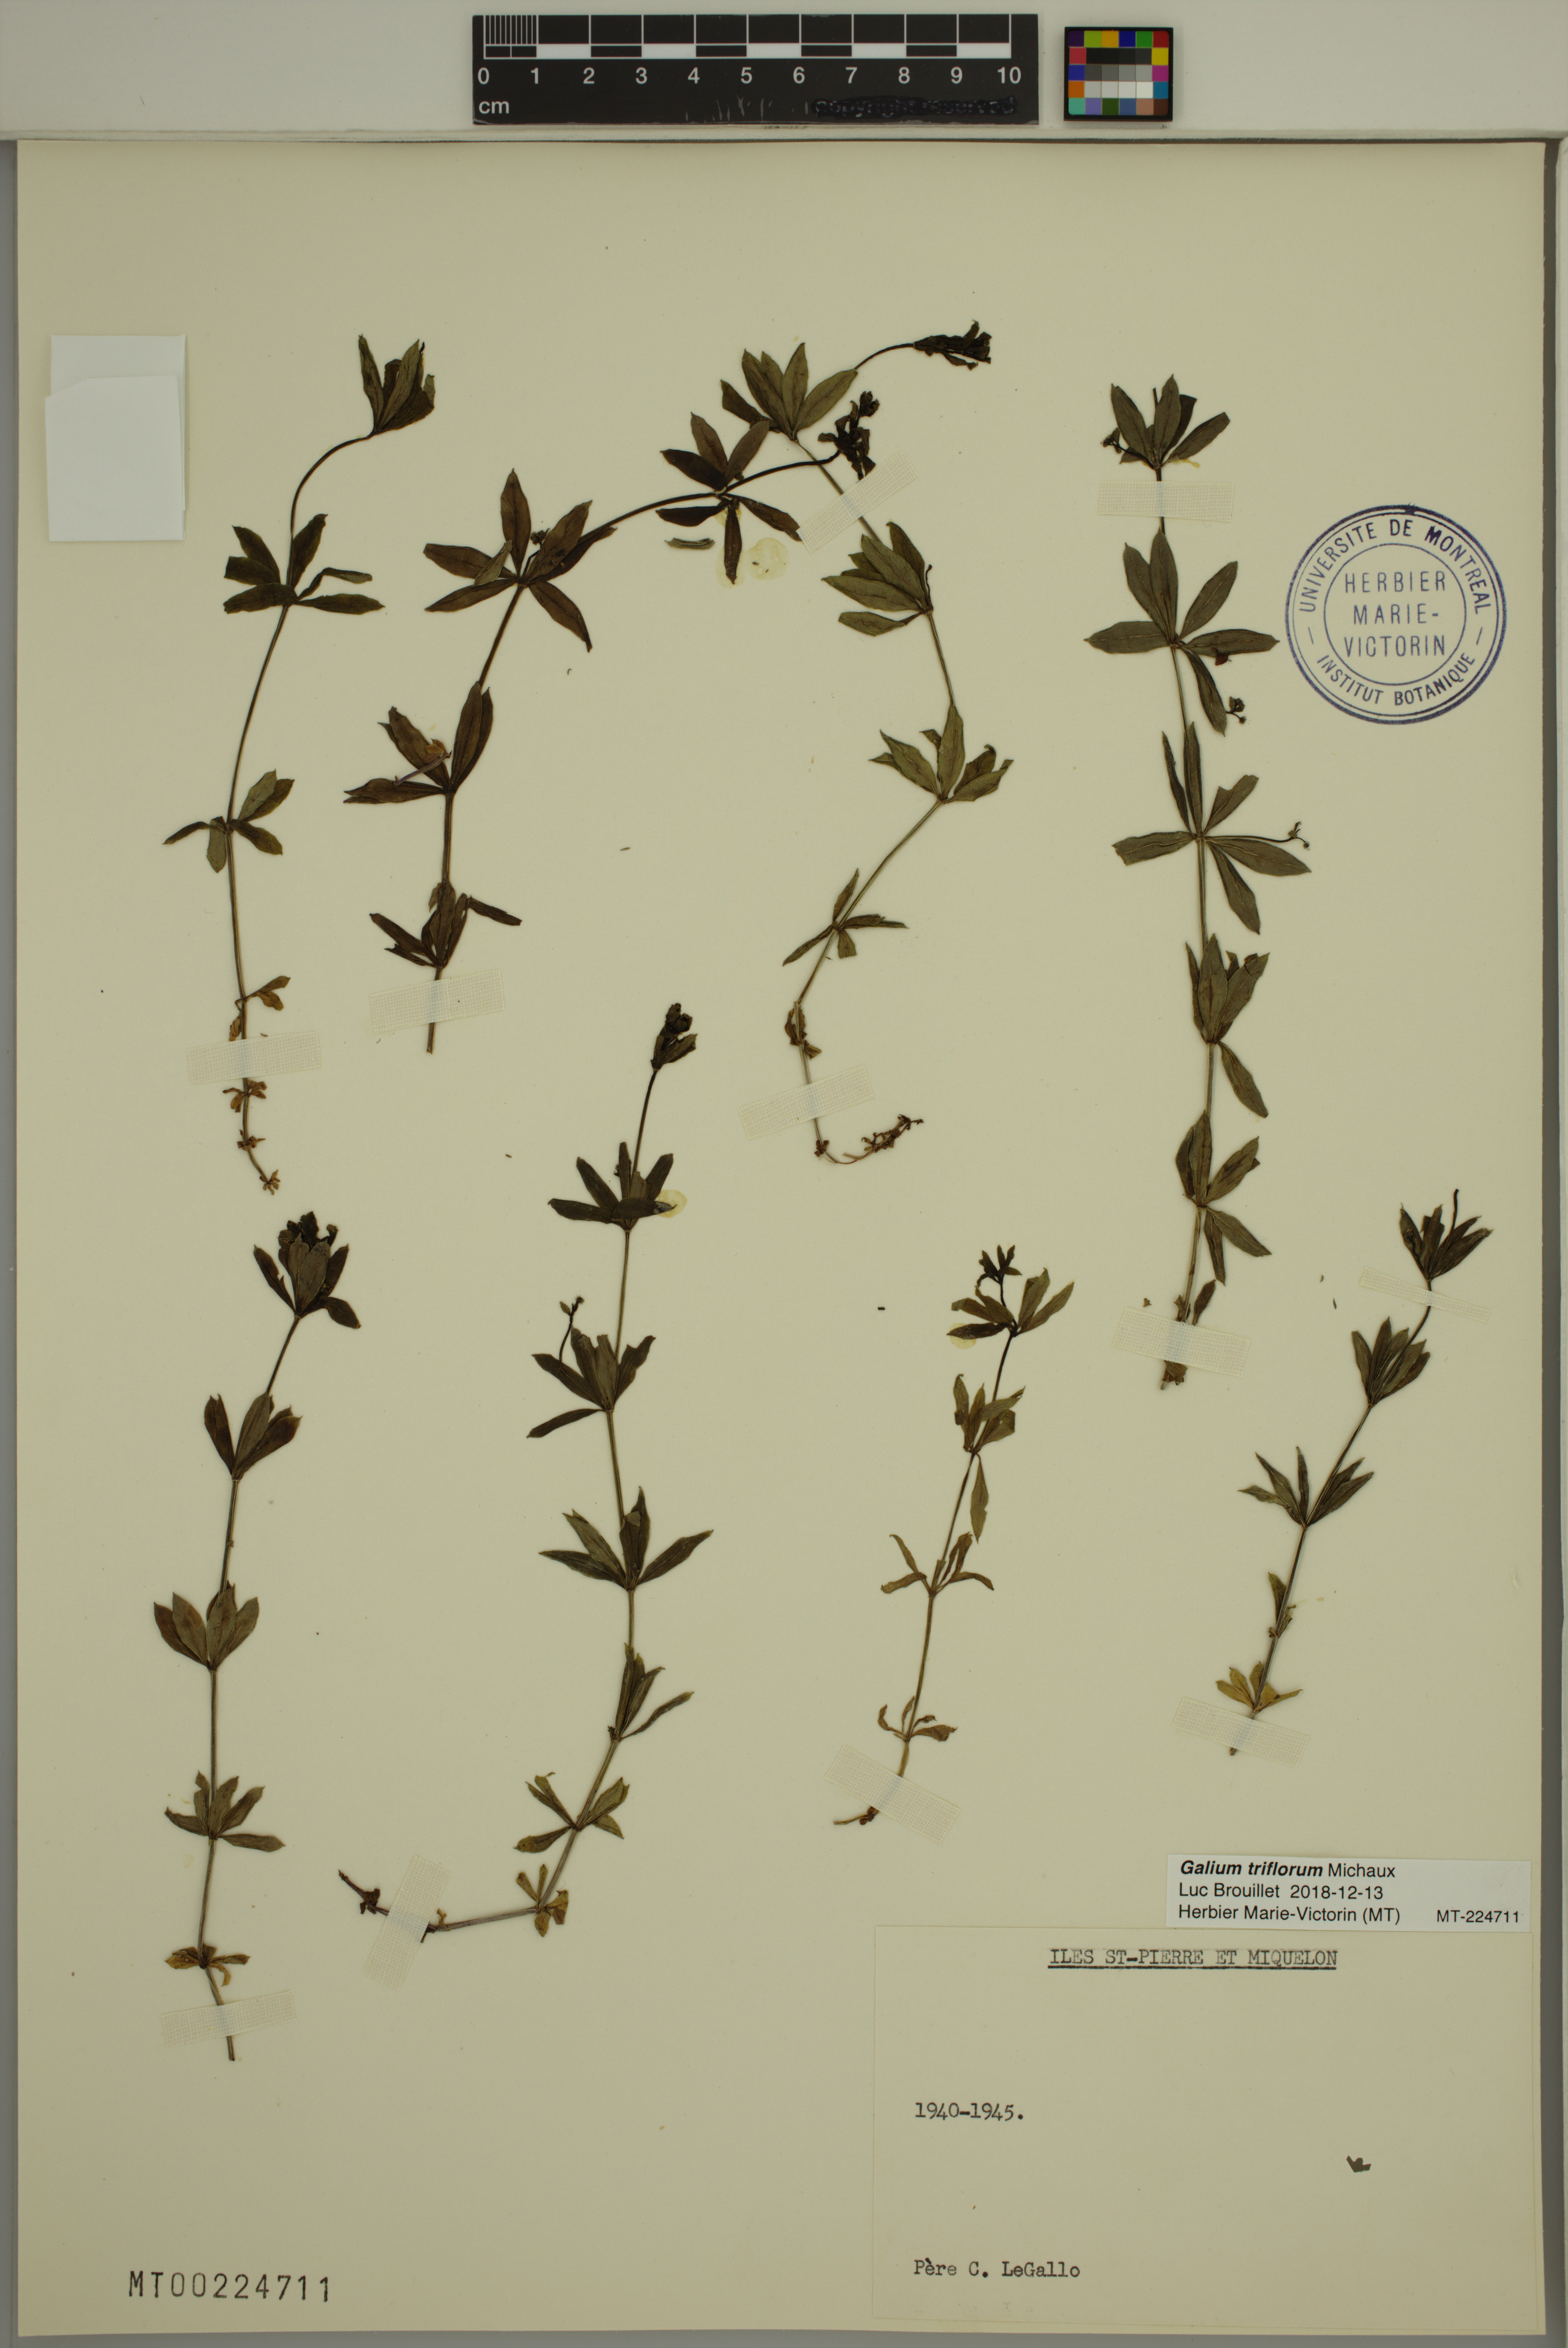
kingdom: Plantae
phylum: Tracheophyta
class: Magnoliopsida
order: Gentianales
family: Rubiaceae
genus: Galium
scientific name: Galium triflorum
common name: Fragrant bedstraw
